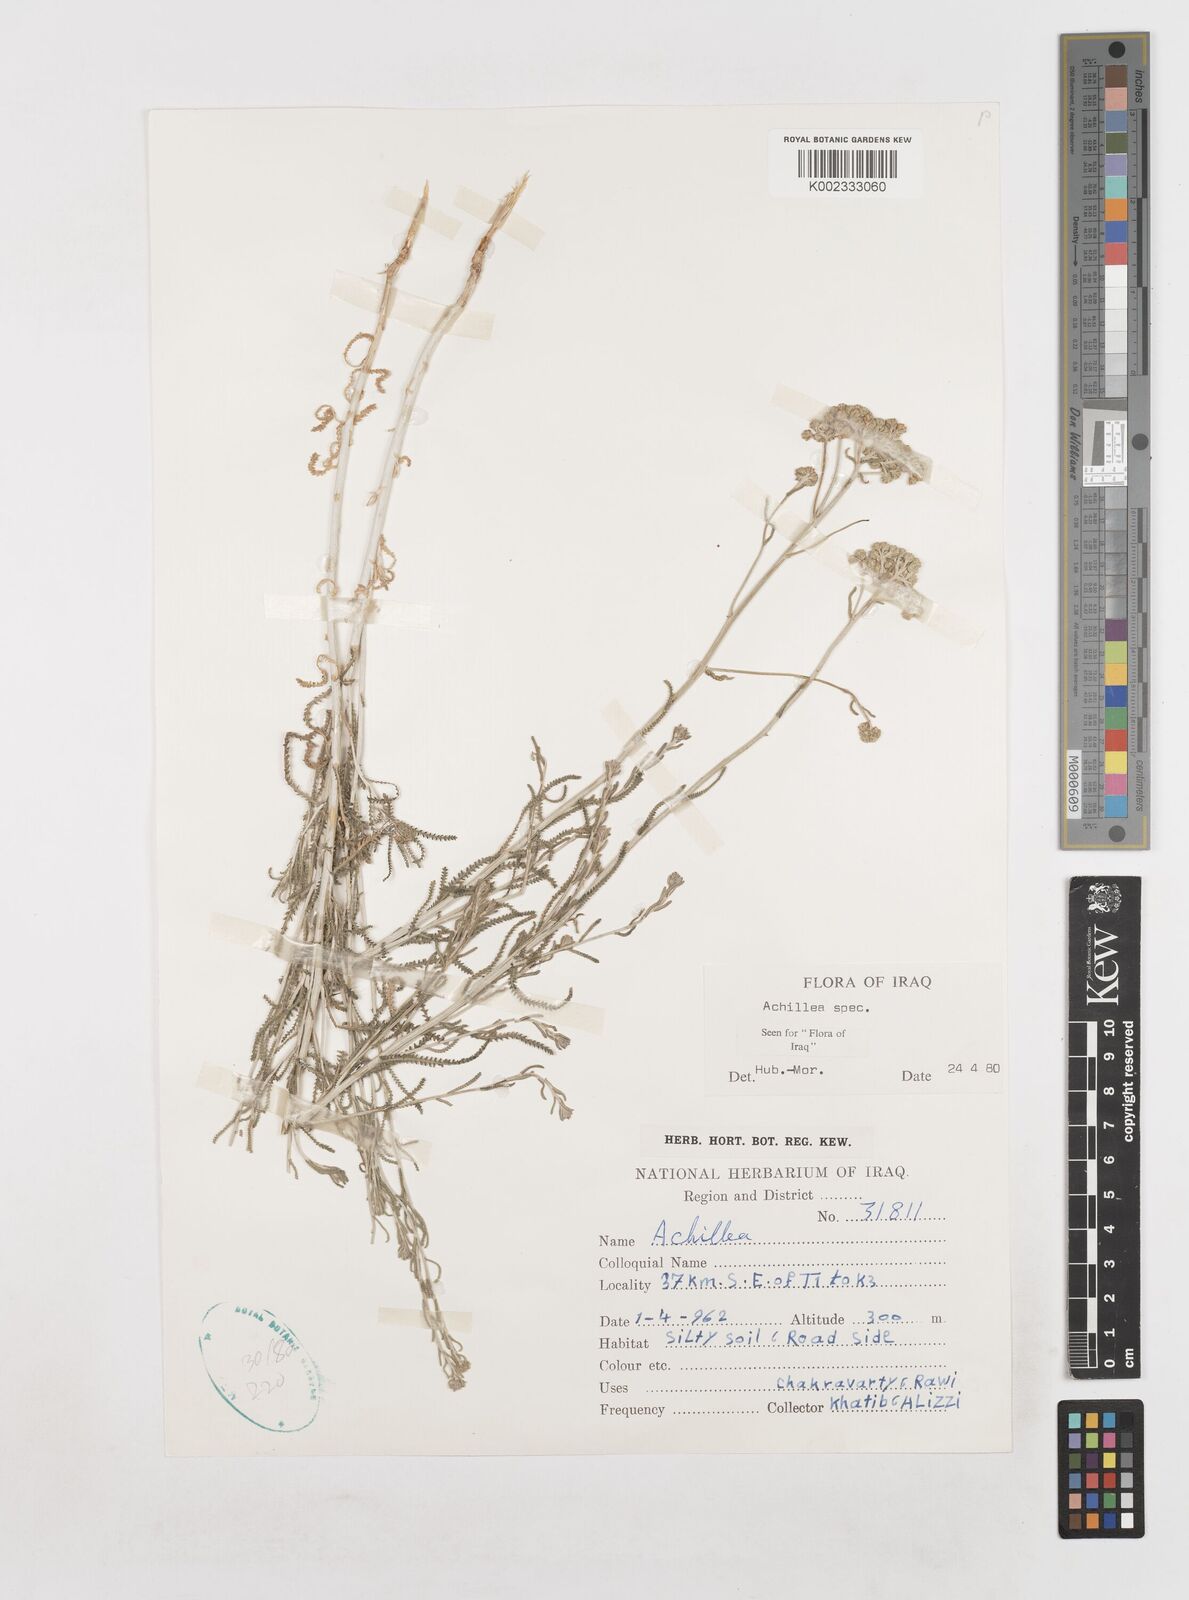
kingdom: Plantae
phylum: Tracheophyta
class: Magnoliopsida
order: Asterales
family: Asteraceae
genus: Achillea
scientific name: Achillea
